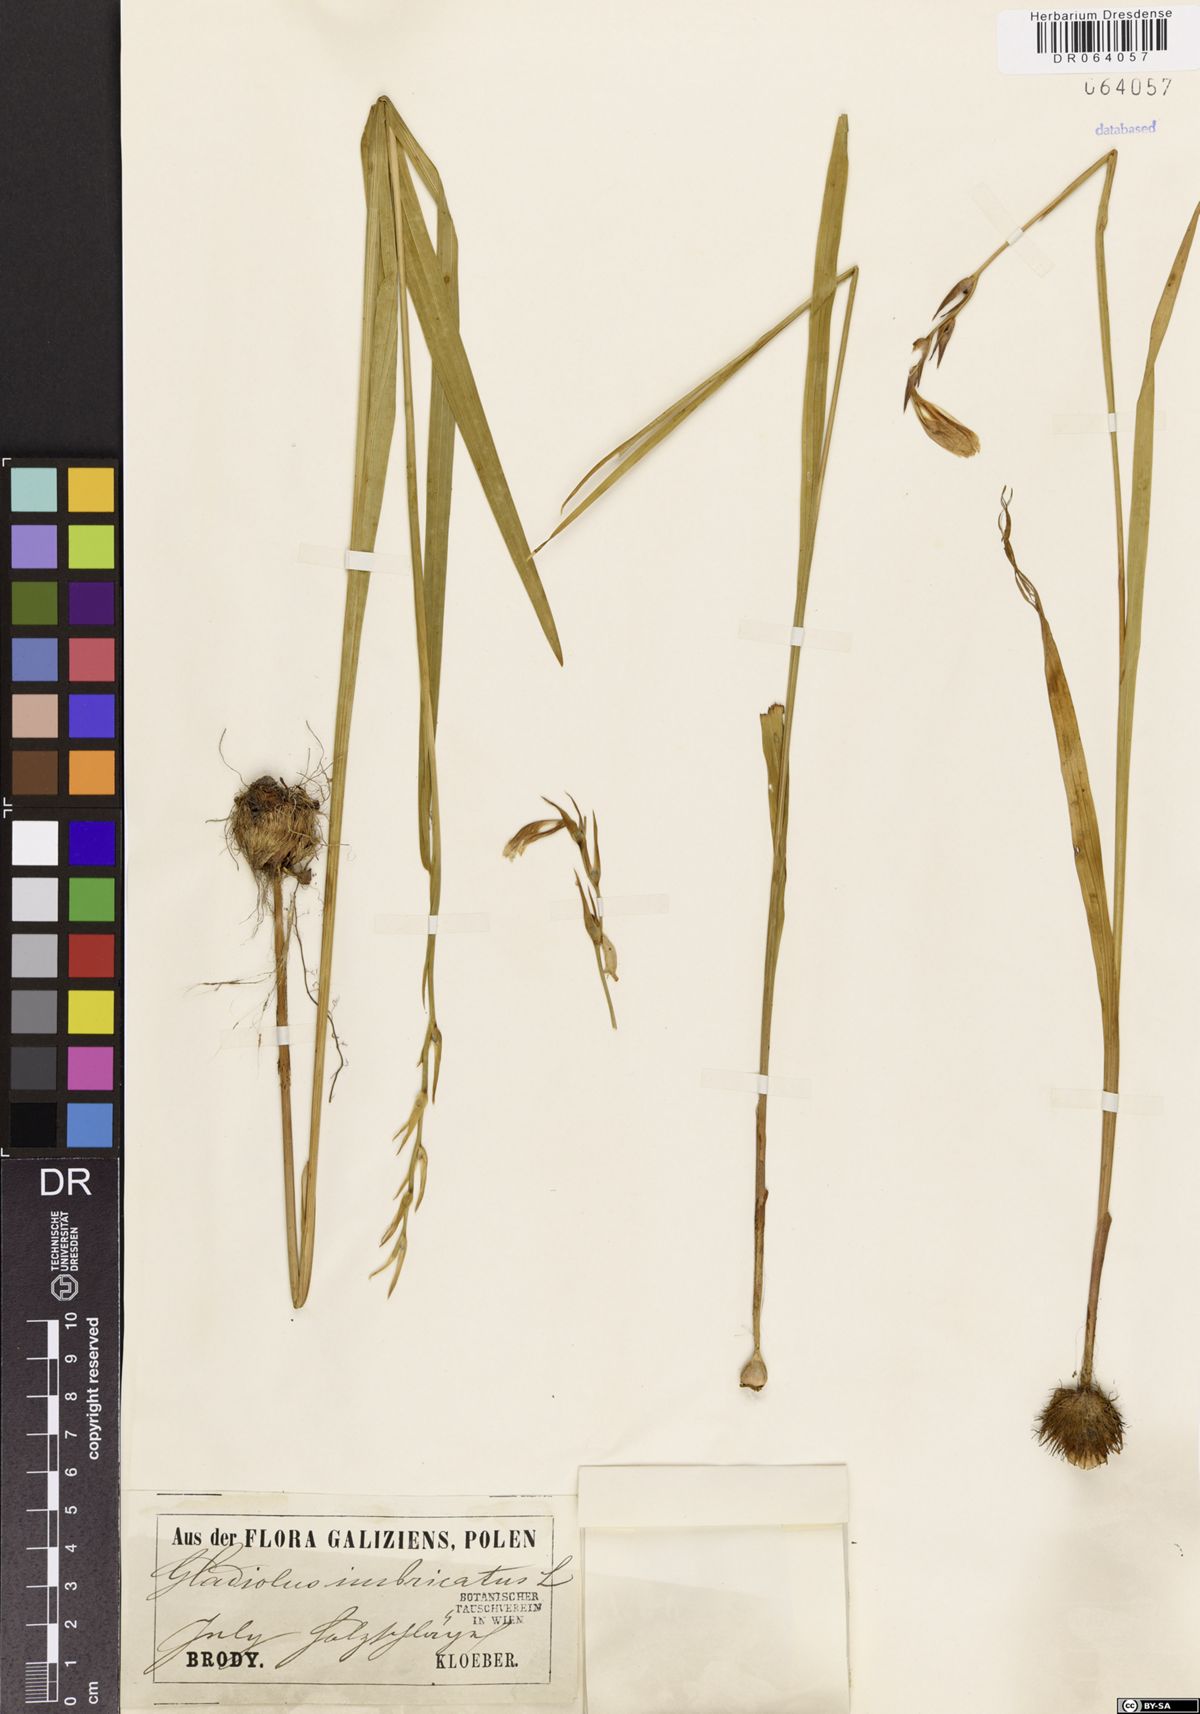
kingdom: Plantae
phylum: Tracheophyta
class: Liliopsida
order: Asparagales
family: Iridaceae
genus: Gladiolus
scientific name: Gladiolus imbricatus
